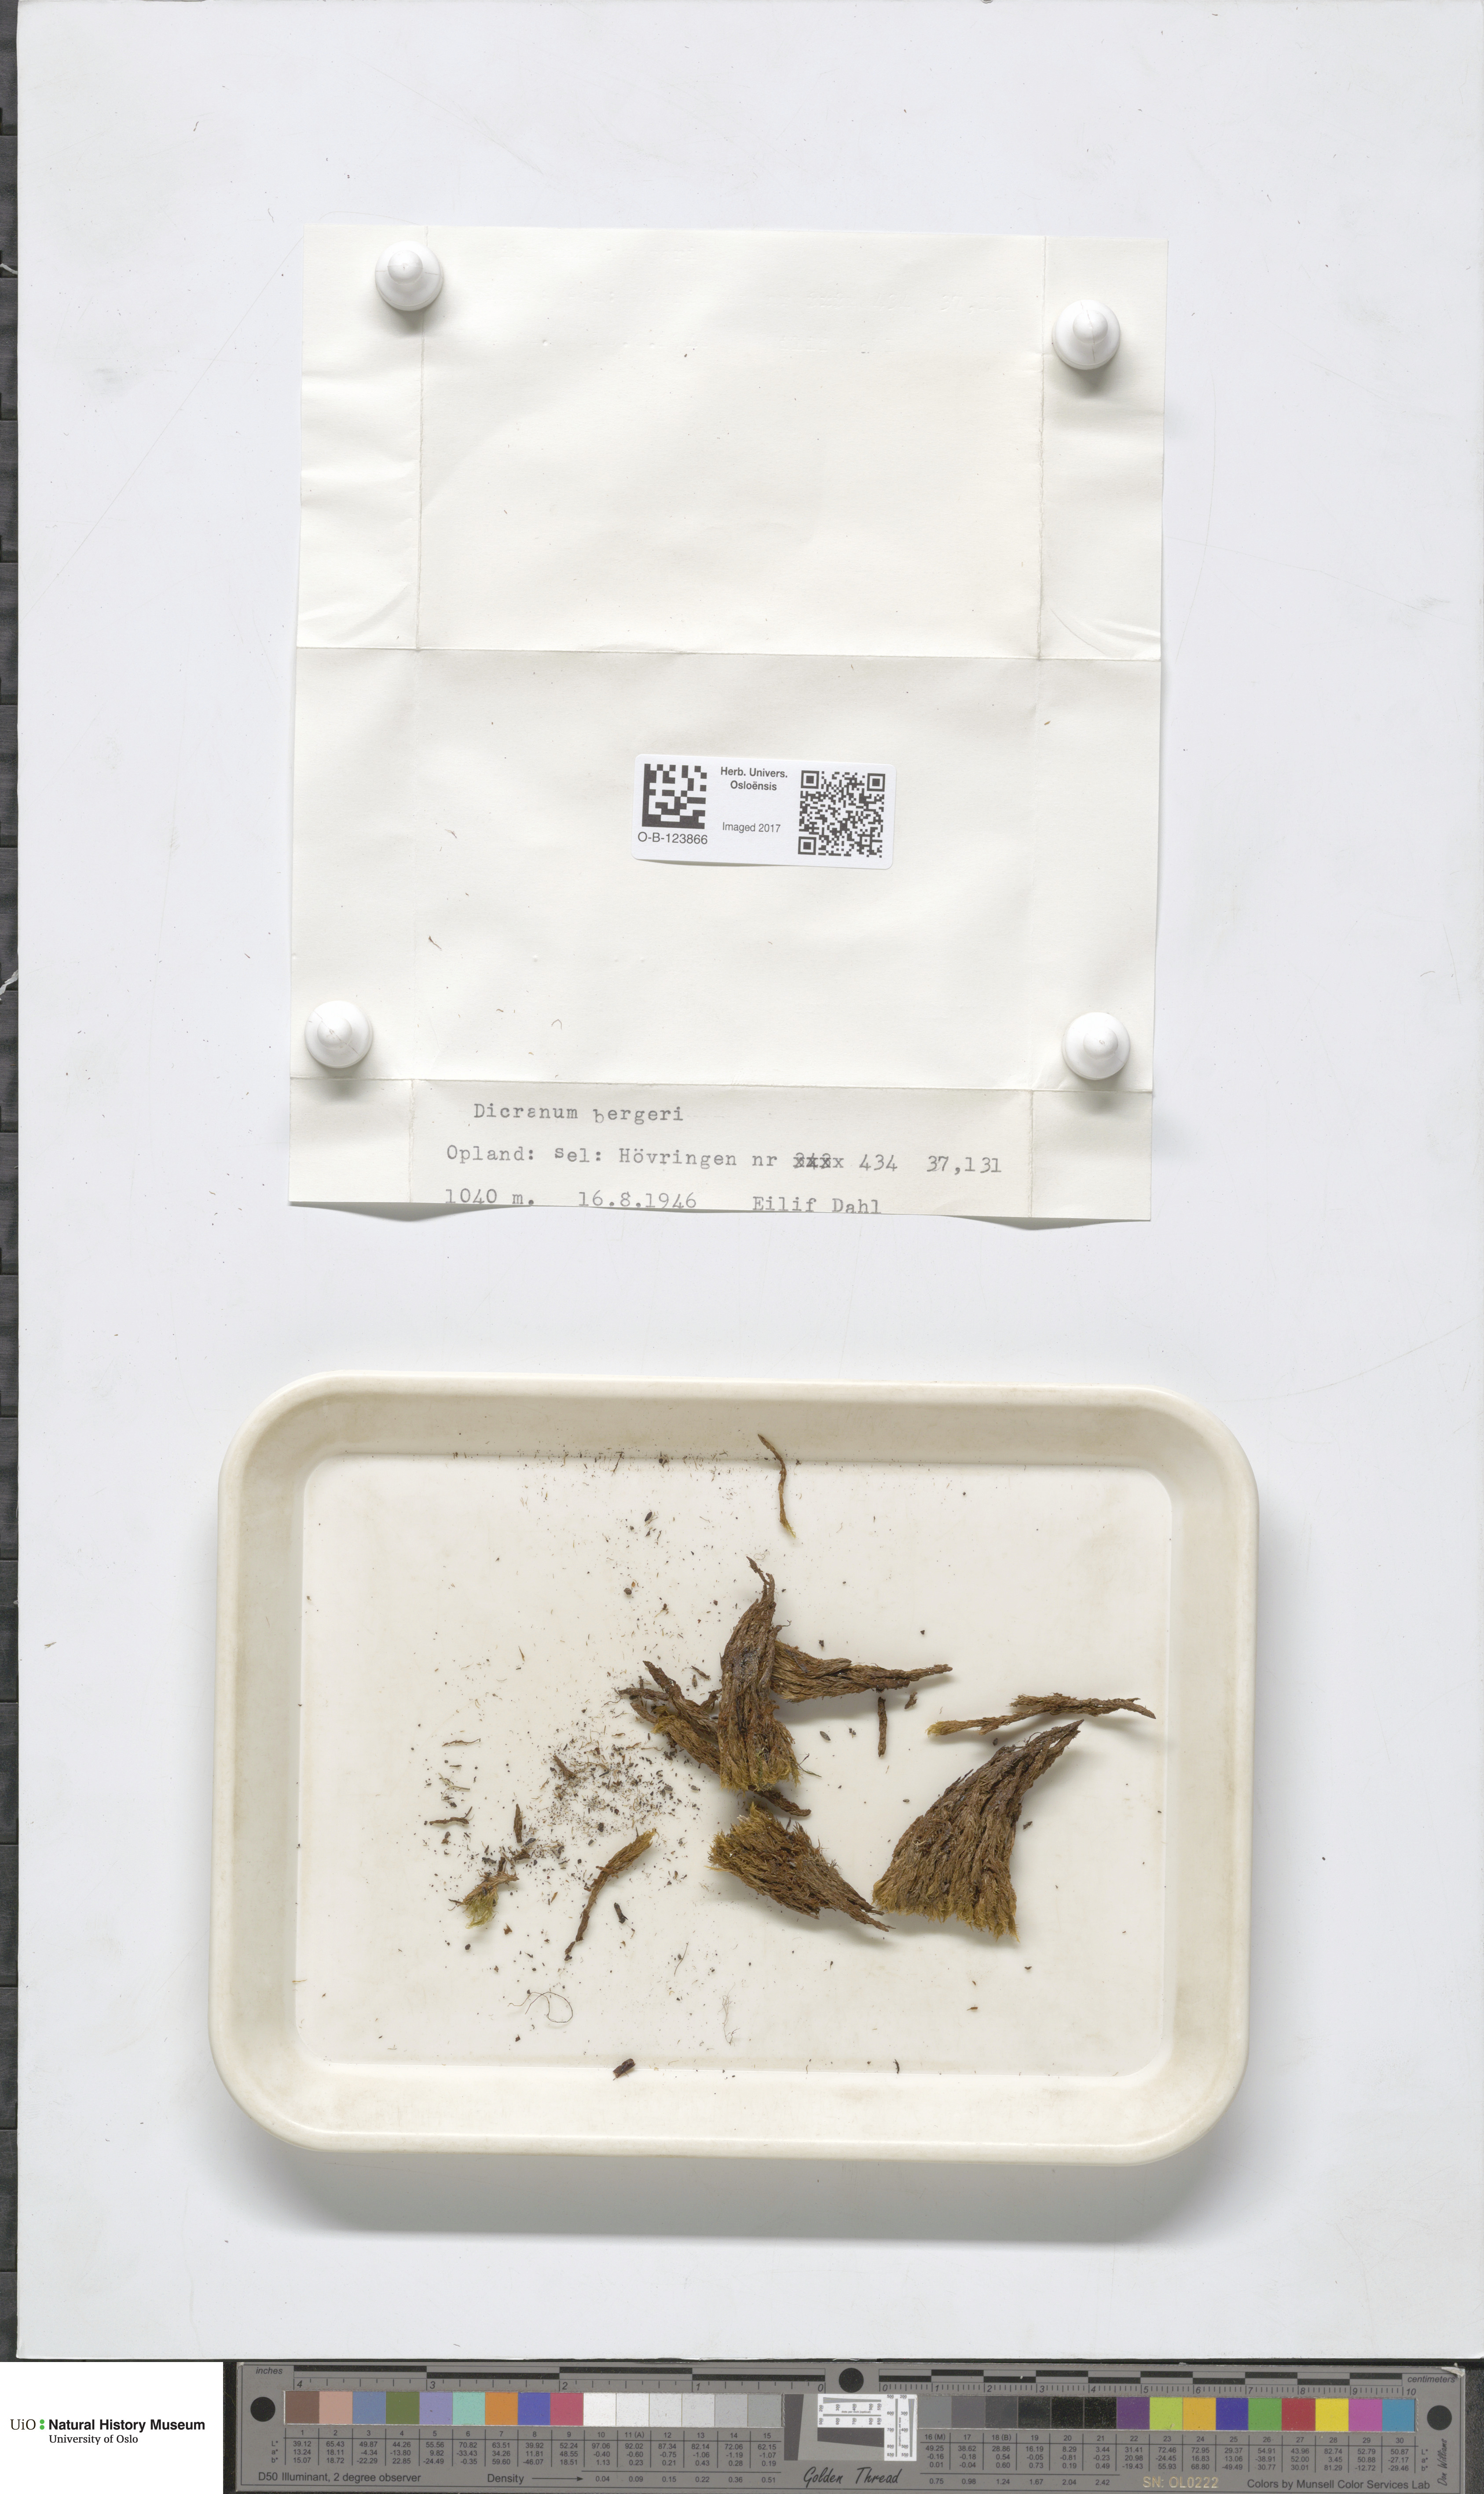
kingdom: Plantae
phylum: Bryophyta
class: Bryopsida
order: Dicranales
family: Dicranaceae
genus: Dicranum
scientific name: Dicranum undulatum
